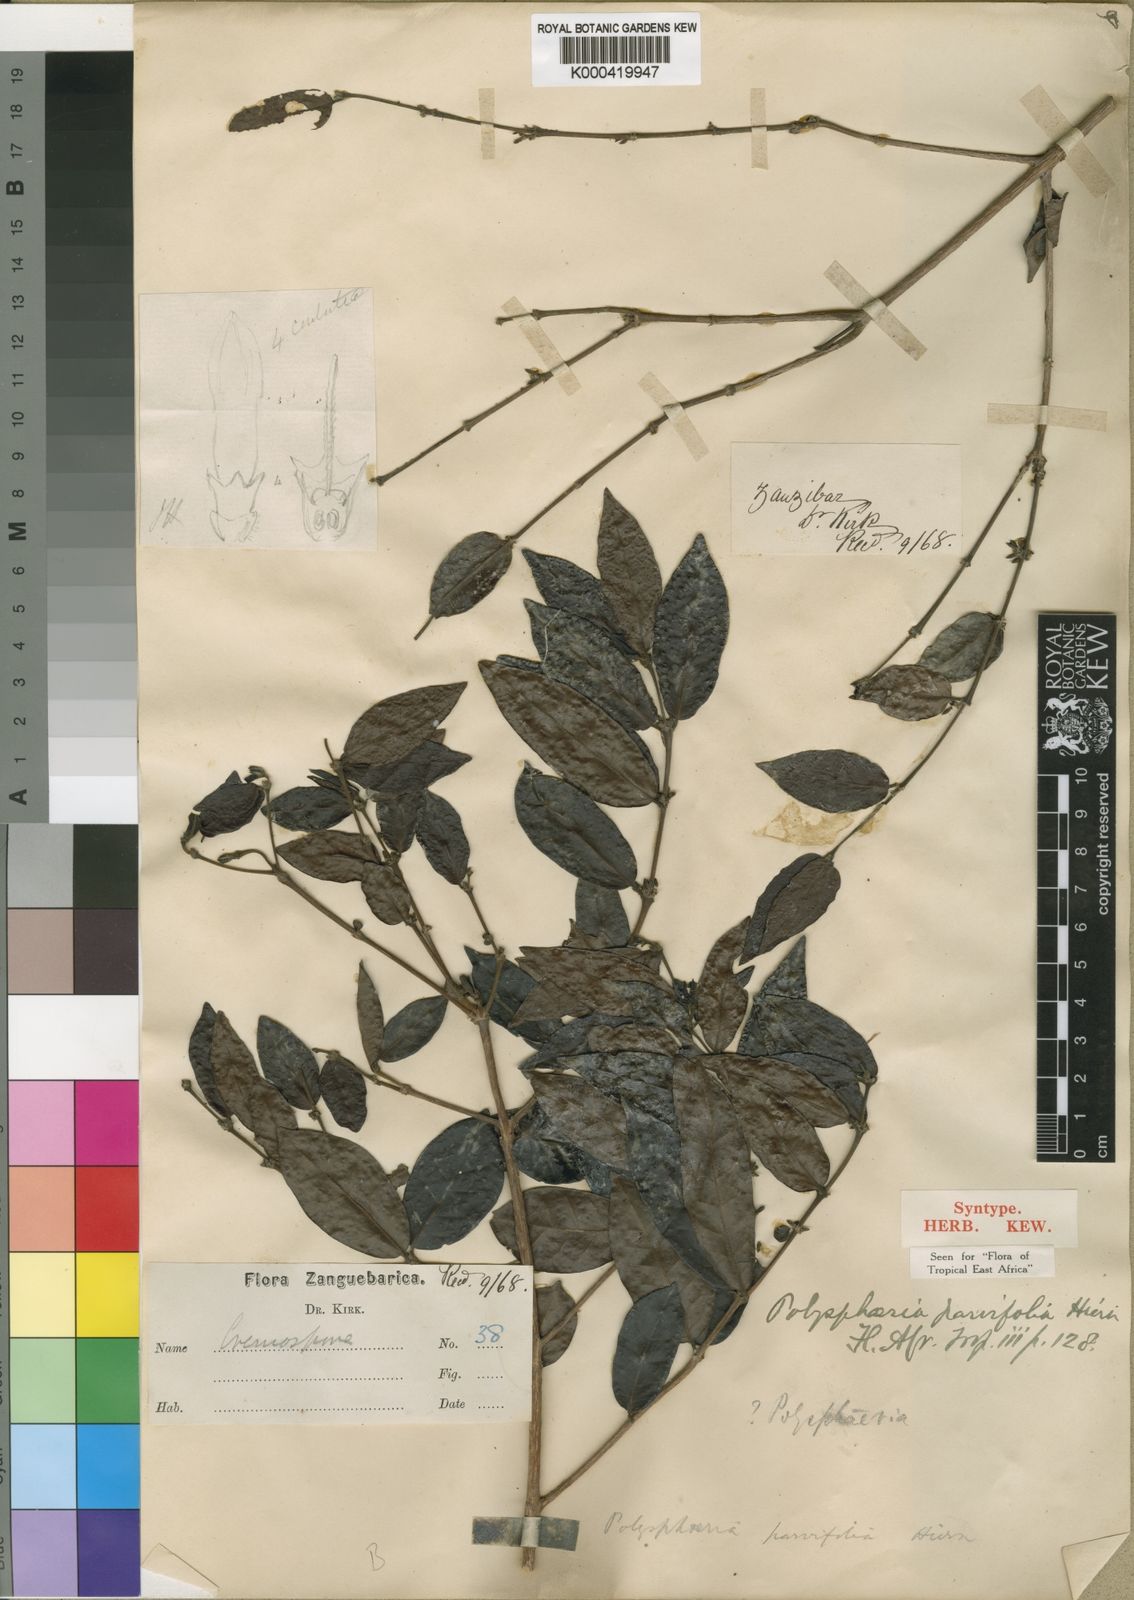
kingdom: Plantae
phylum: Tracheophyta
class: Magnoliopsida
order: Gentianales
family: Rubiaceae
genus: Polysphaeria
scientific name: Polysphaeria parvifolia
